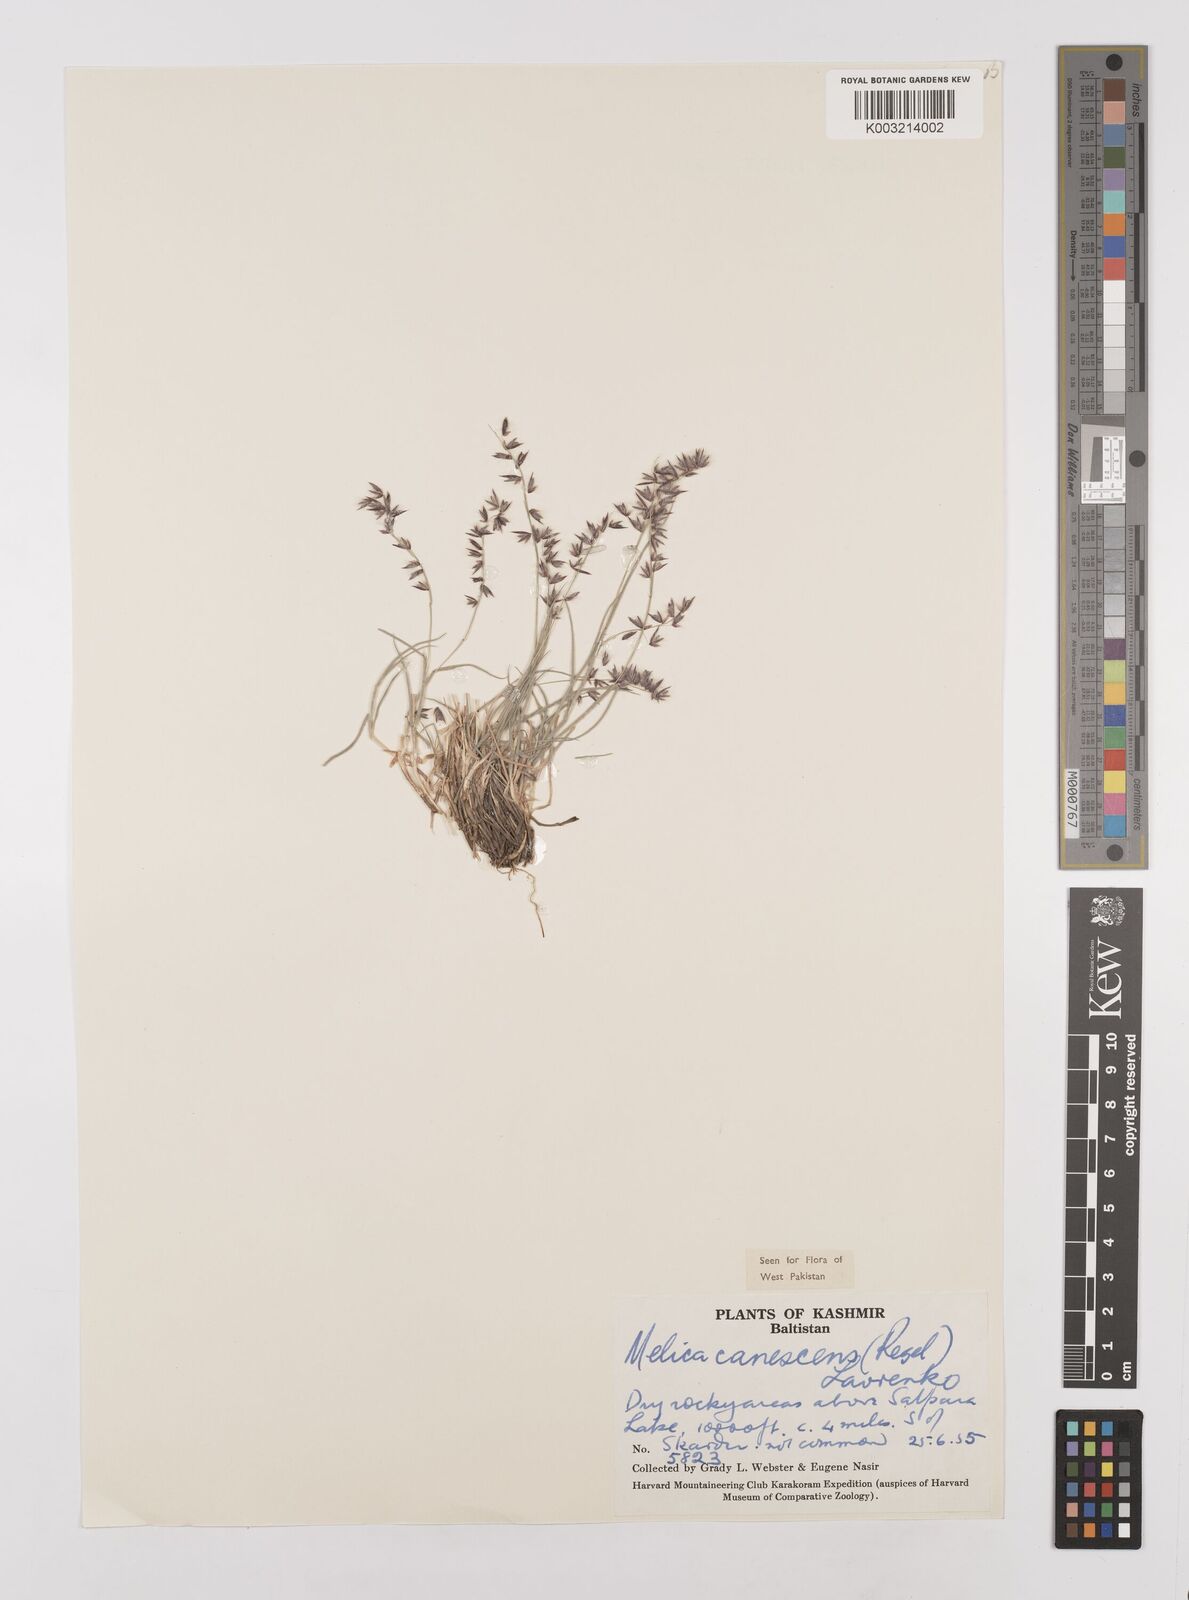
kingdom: Plantae
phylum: Tracheophyta
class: Liliopsida
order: Poales
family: Poaceae
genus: Melica
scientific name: Melica persica
